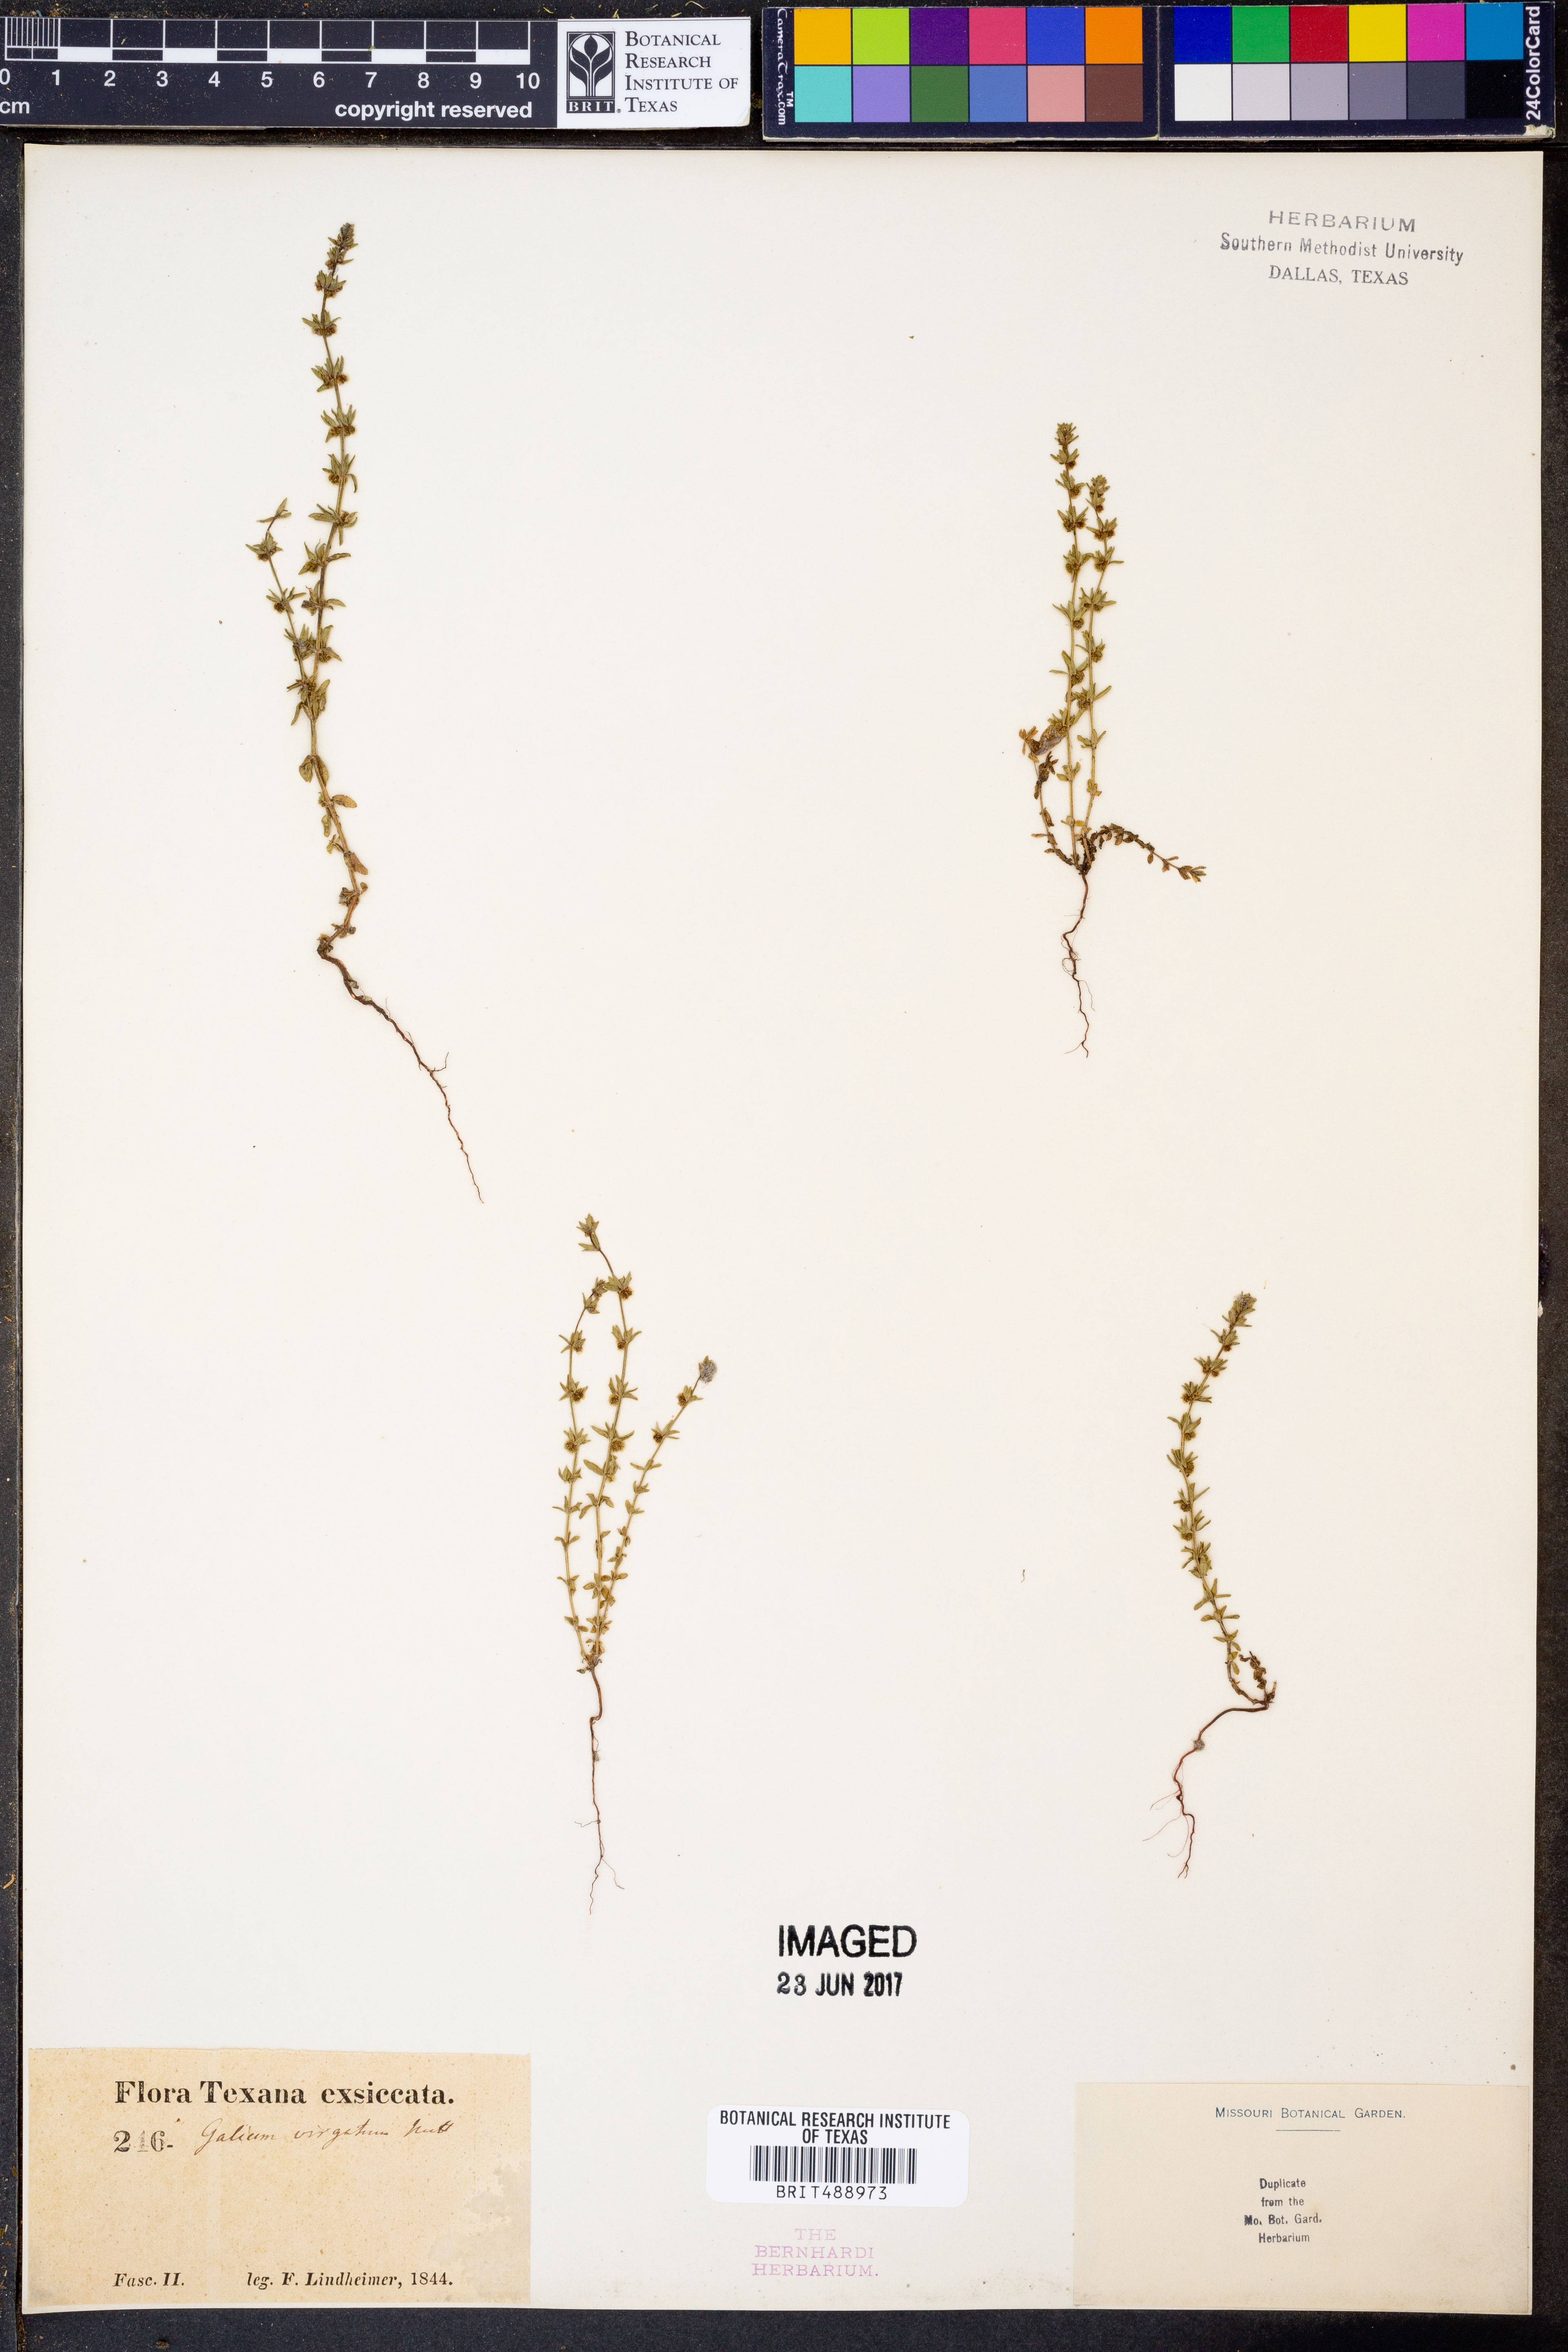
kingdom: Plantae
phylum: Tracheophyta
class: Magnoliopsida
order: Gentianales
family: Rubiaceae
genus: Galium
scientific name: Galium virgatum
